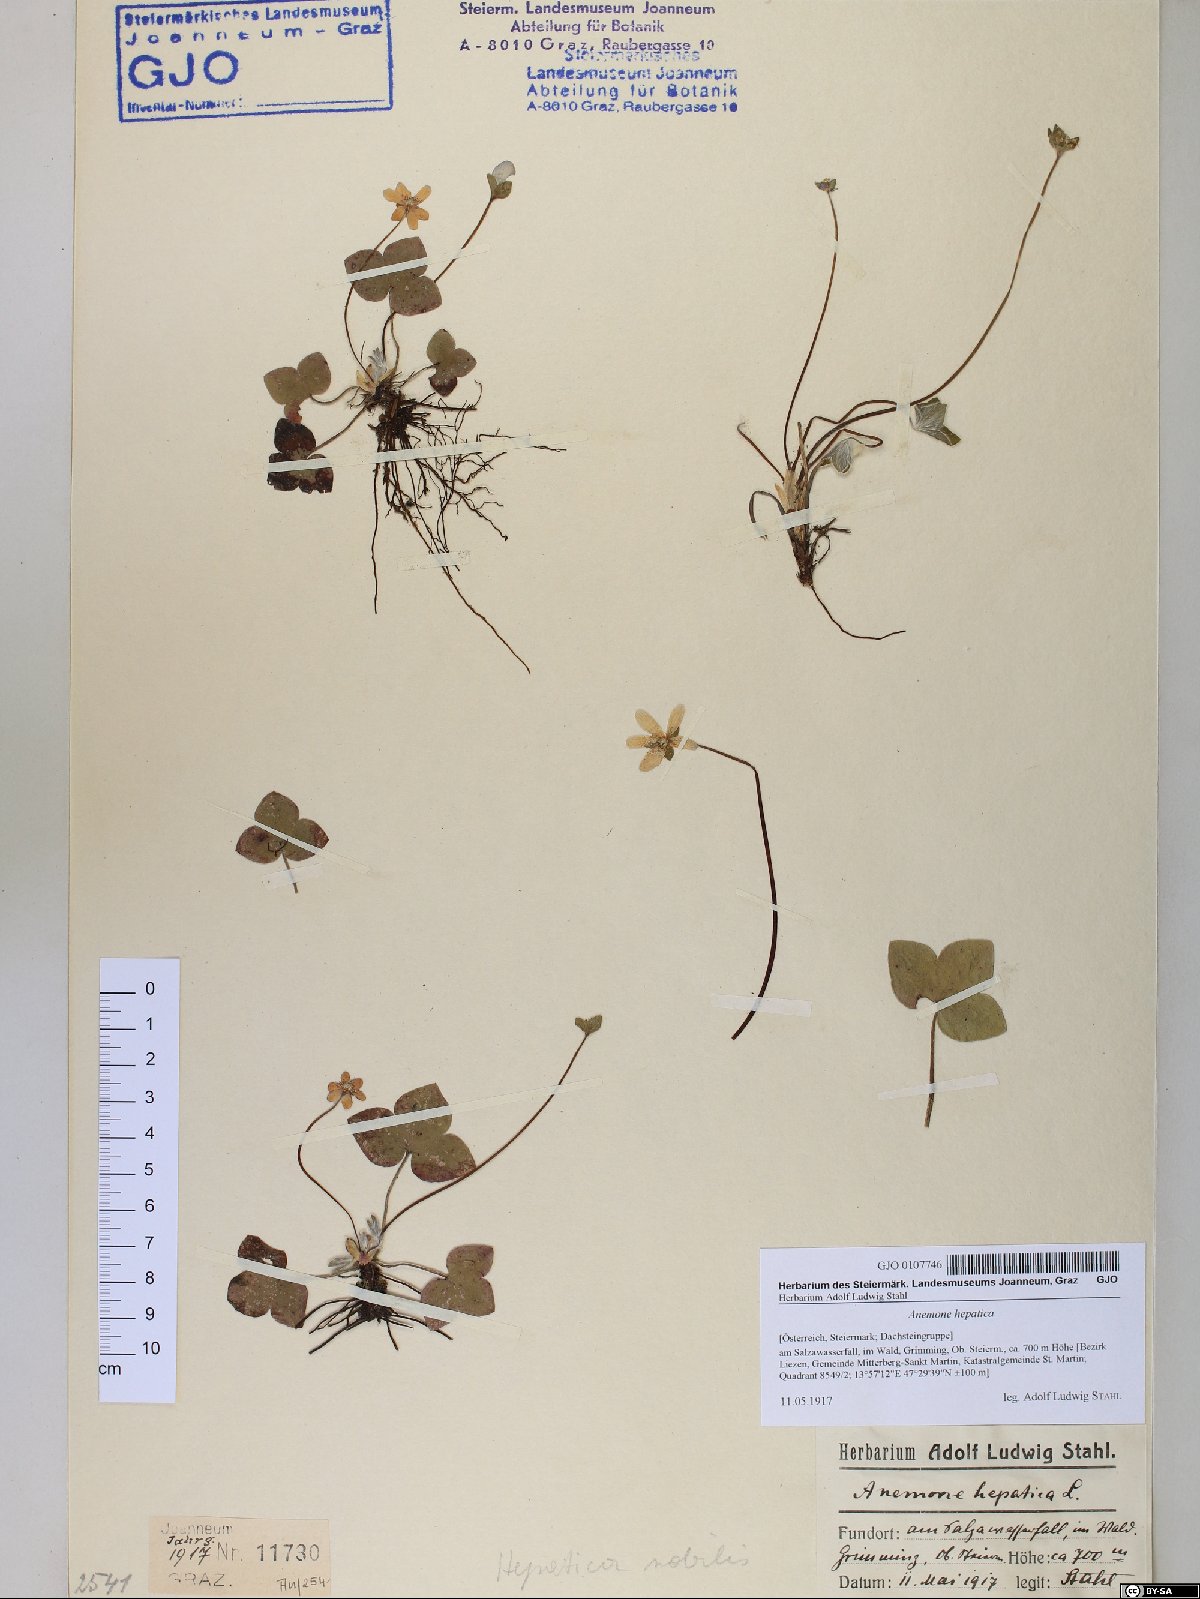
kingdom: Plantae
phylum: Tracheophyta
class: Magnoliopsida
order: Ranunculales
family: Ranunculaceae
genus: Hepatica
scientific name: Hepatica nobilis
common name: Liverleaf
